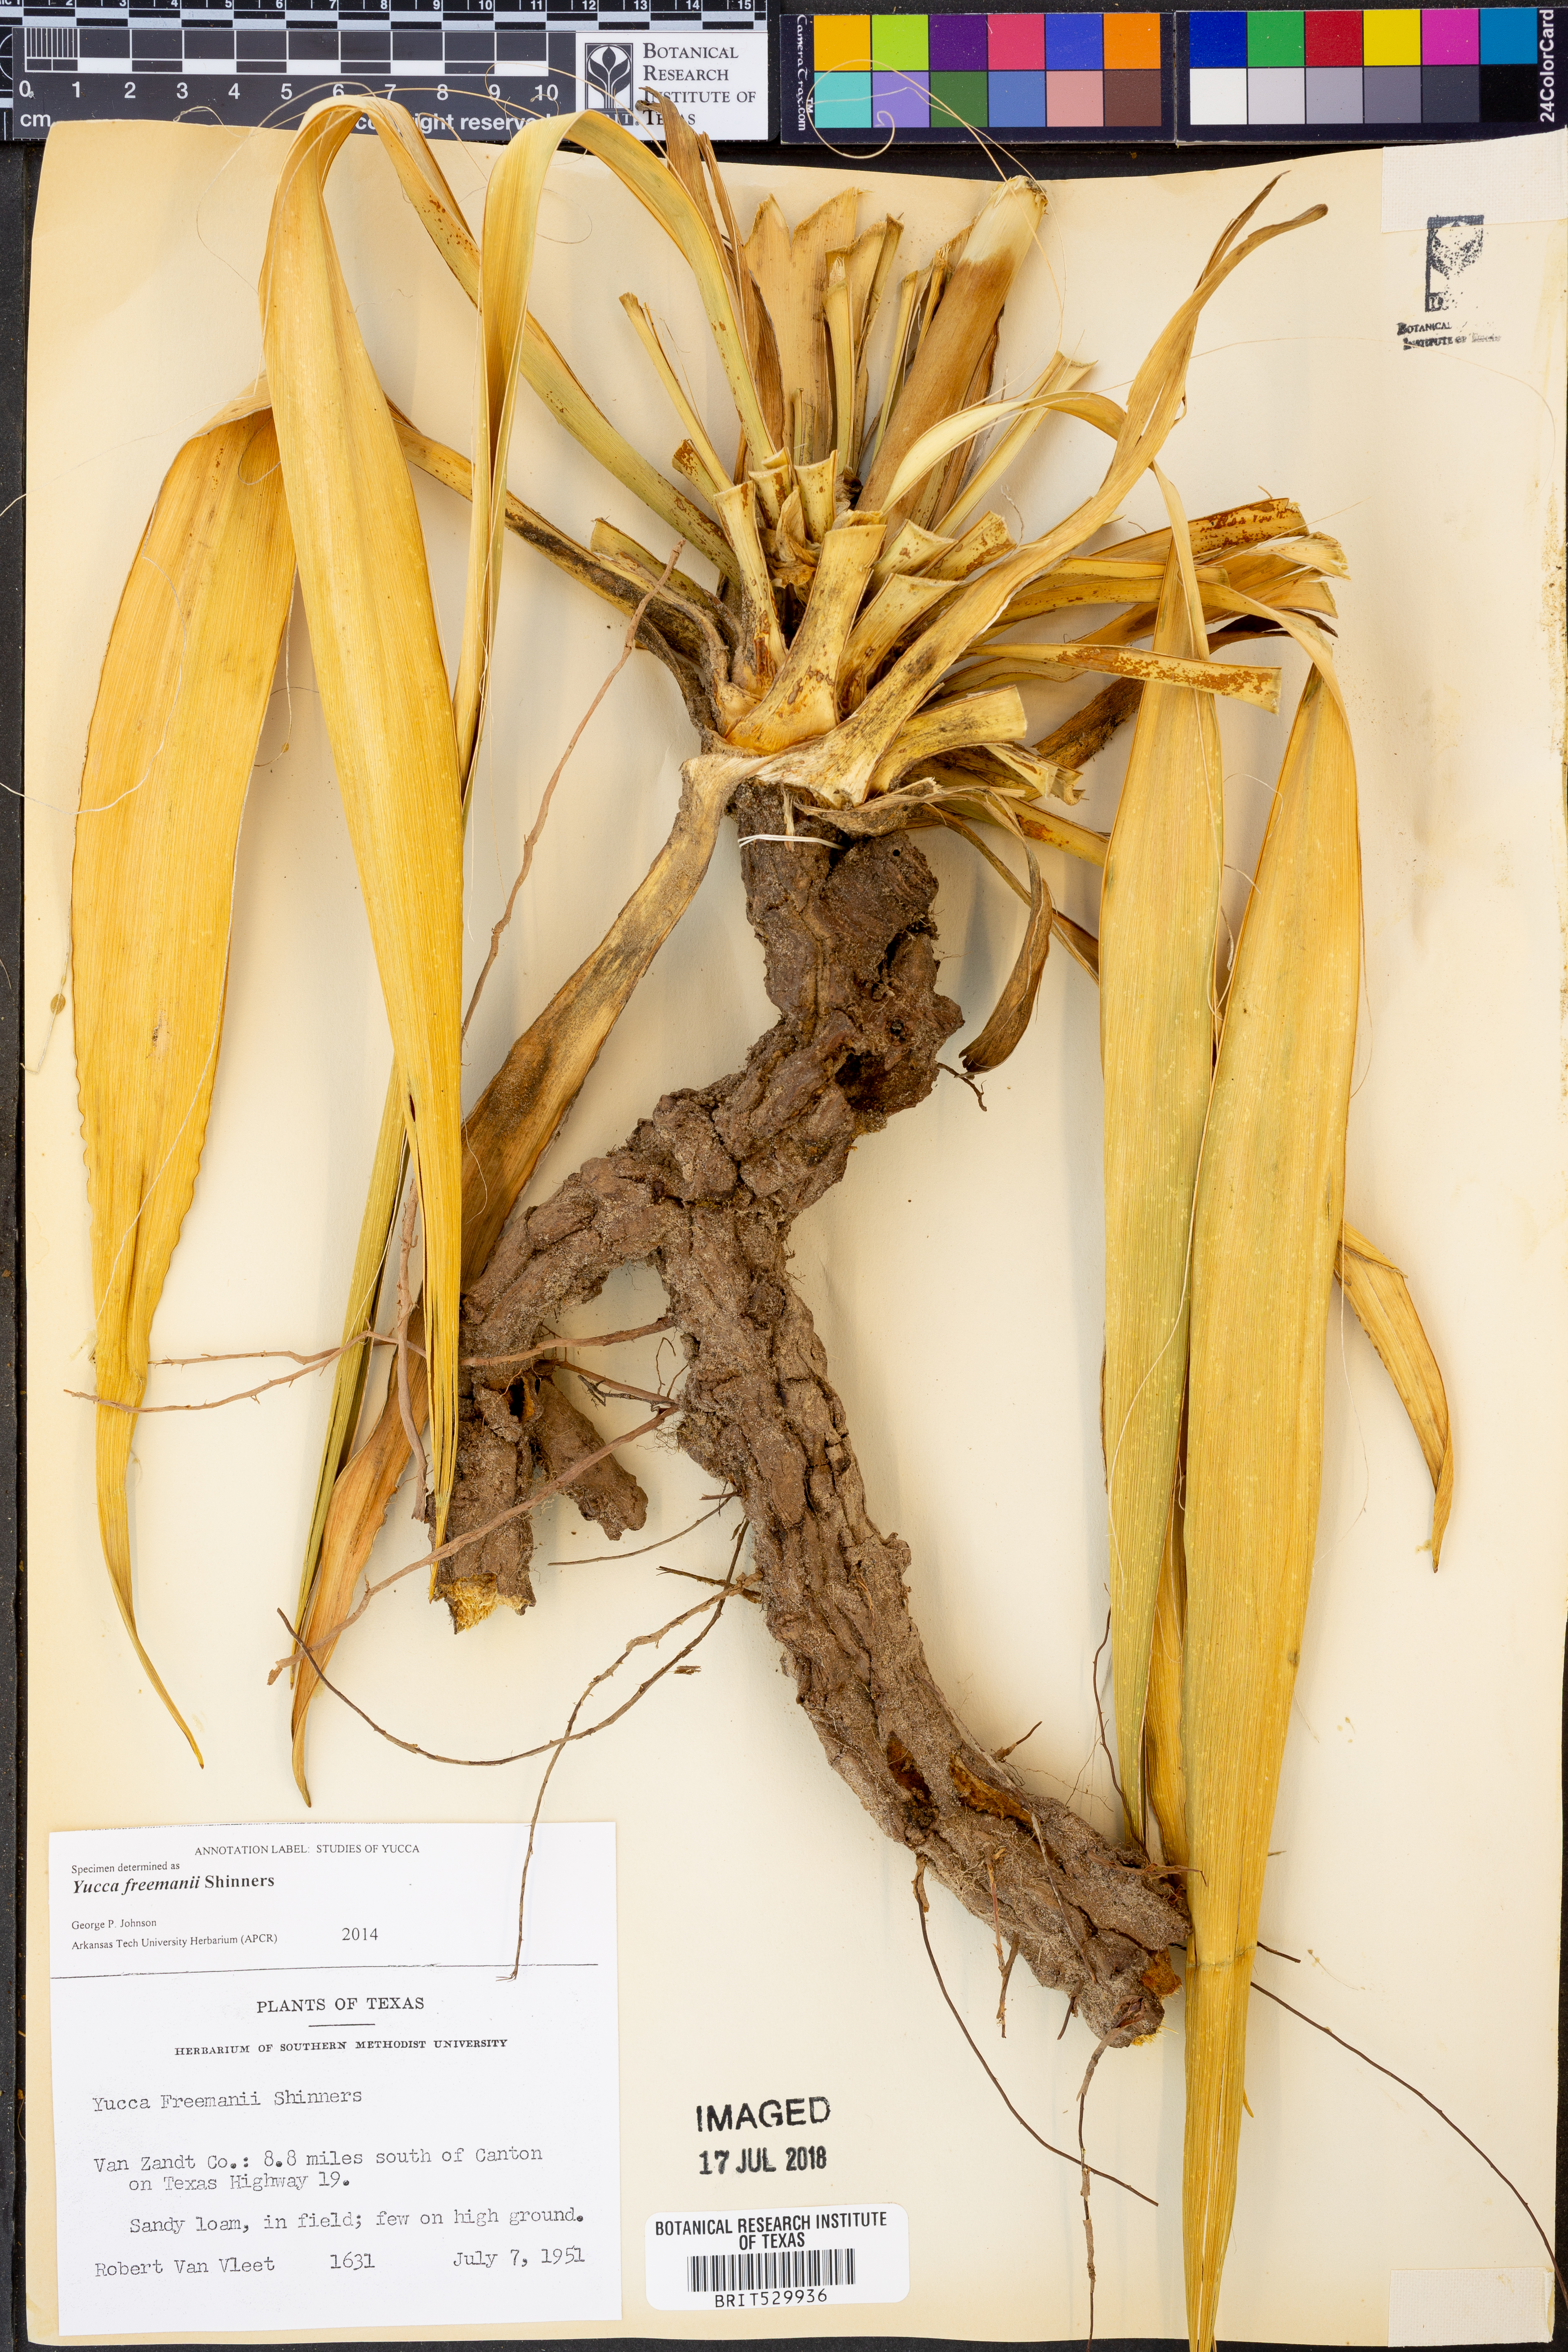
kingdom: Plantae
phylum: Tracheophyta
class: Liliopsida
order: Asparagales
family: Asparagaceae
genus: Yucca
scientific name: Yucca flaccida
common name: Adam's-needle
